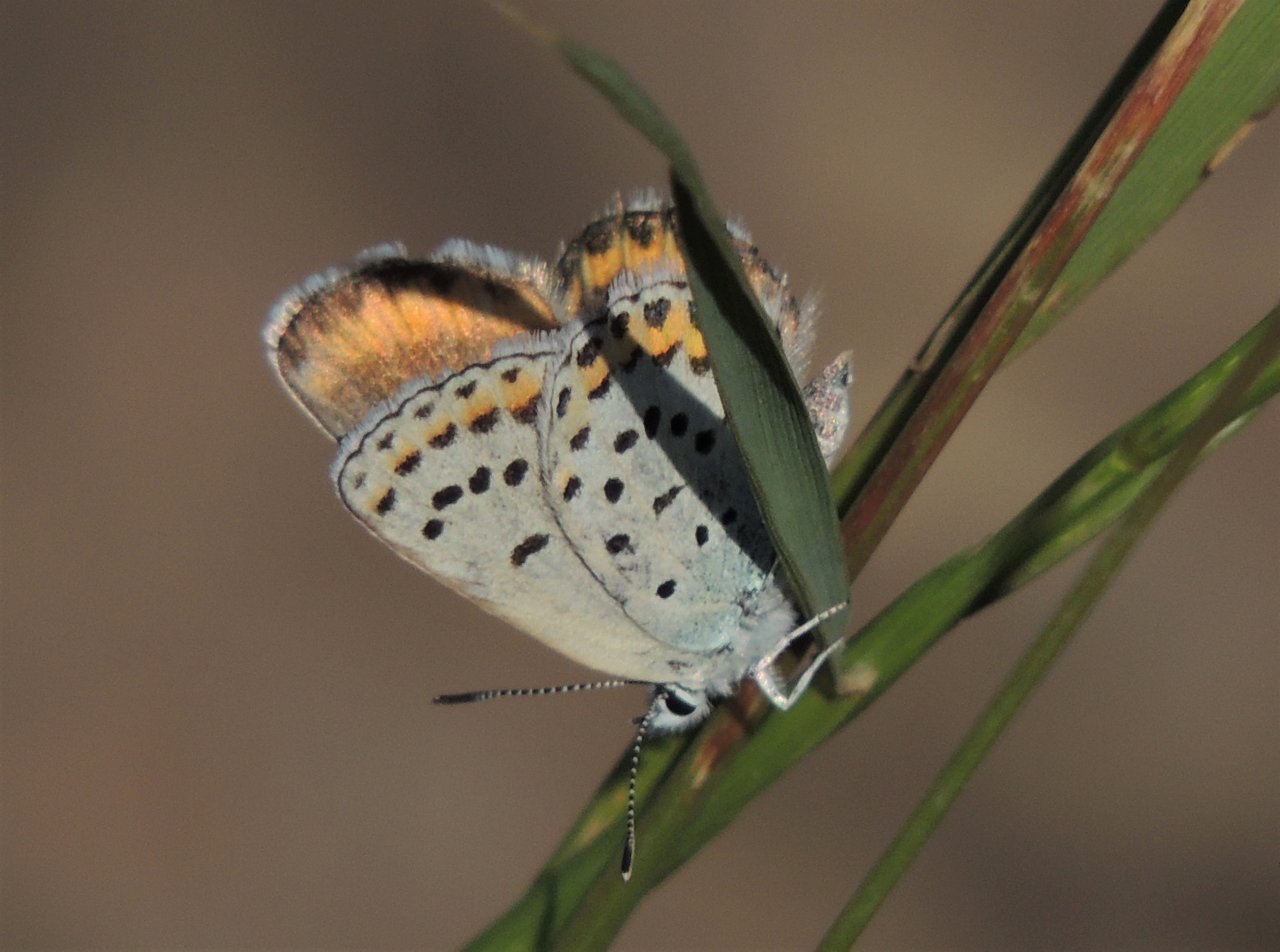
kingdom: Animalia
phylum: Arthropoda
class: Insecta
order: Lepidoptera
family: Lycaenidae
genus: Lycaeides
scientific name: Lycaeides melissa
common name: Melissa Blue
